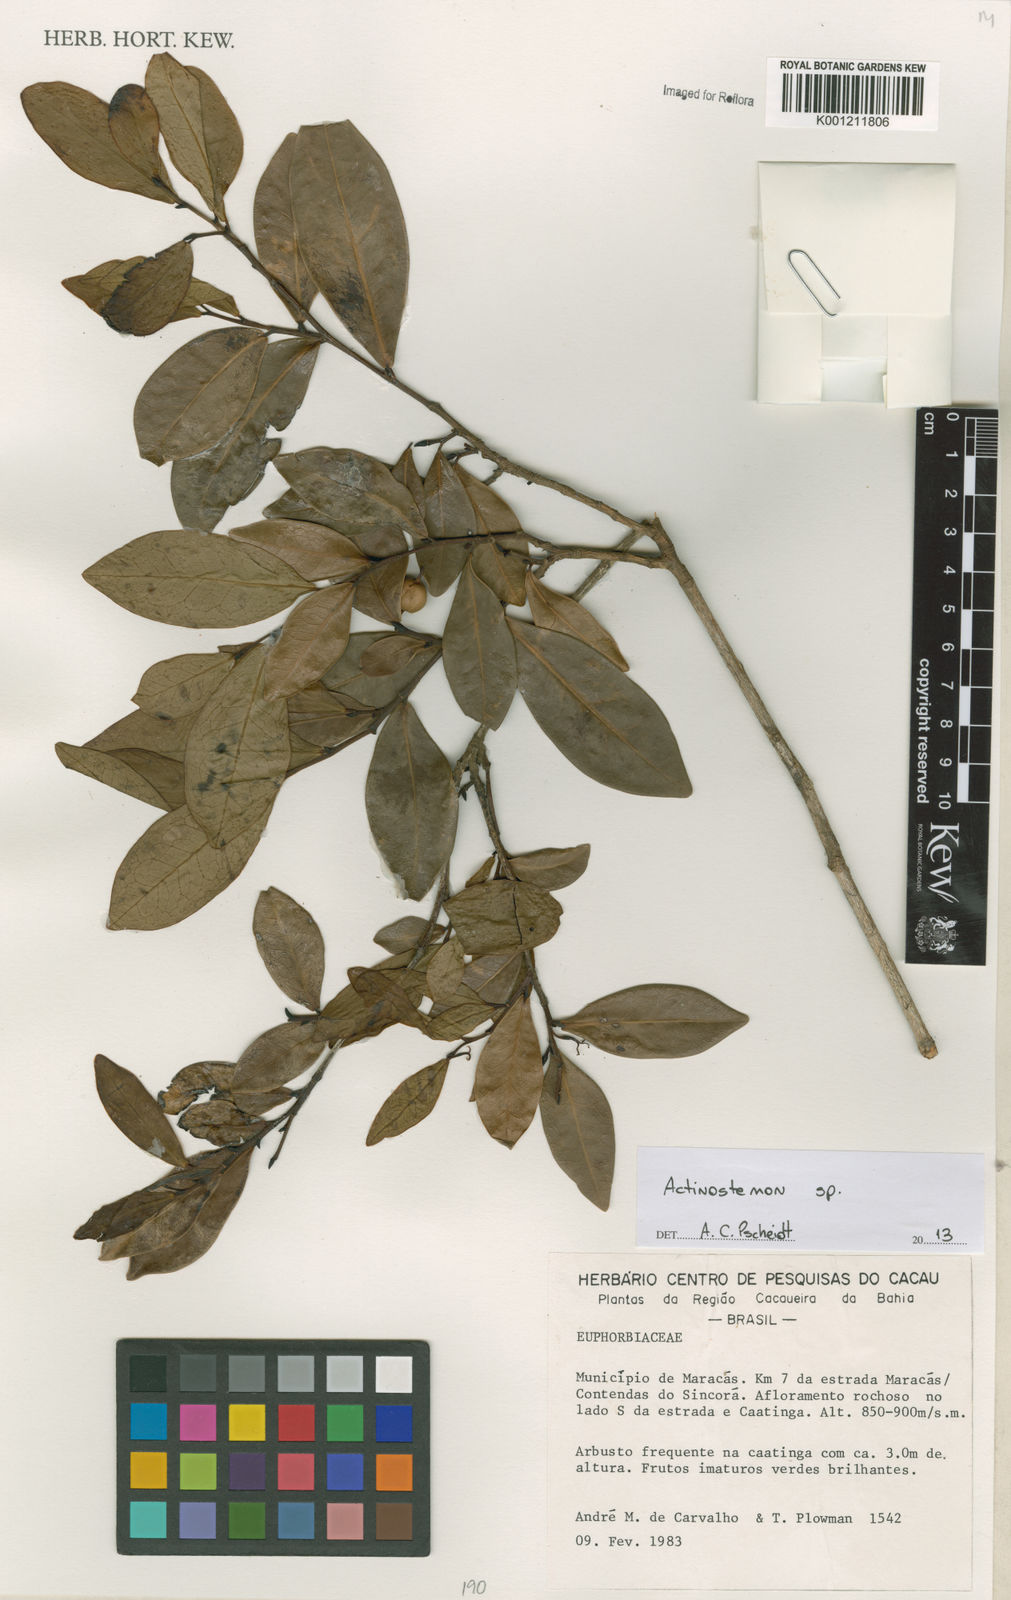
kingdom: Plantae
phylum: Tracheophyta
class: Magnoliopsida
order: Malpighiales
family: Euphorbiaceae
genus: Actinostemon
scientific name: Actinostemon
